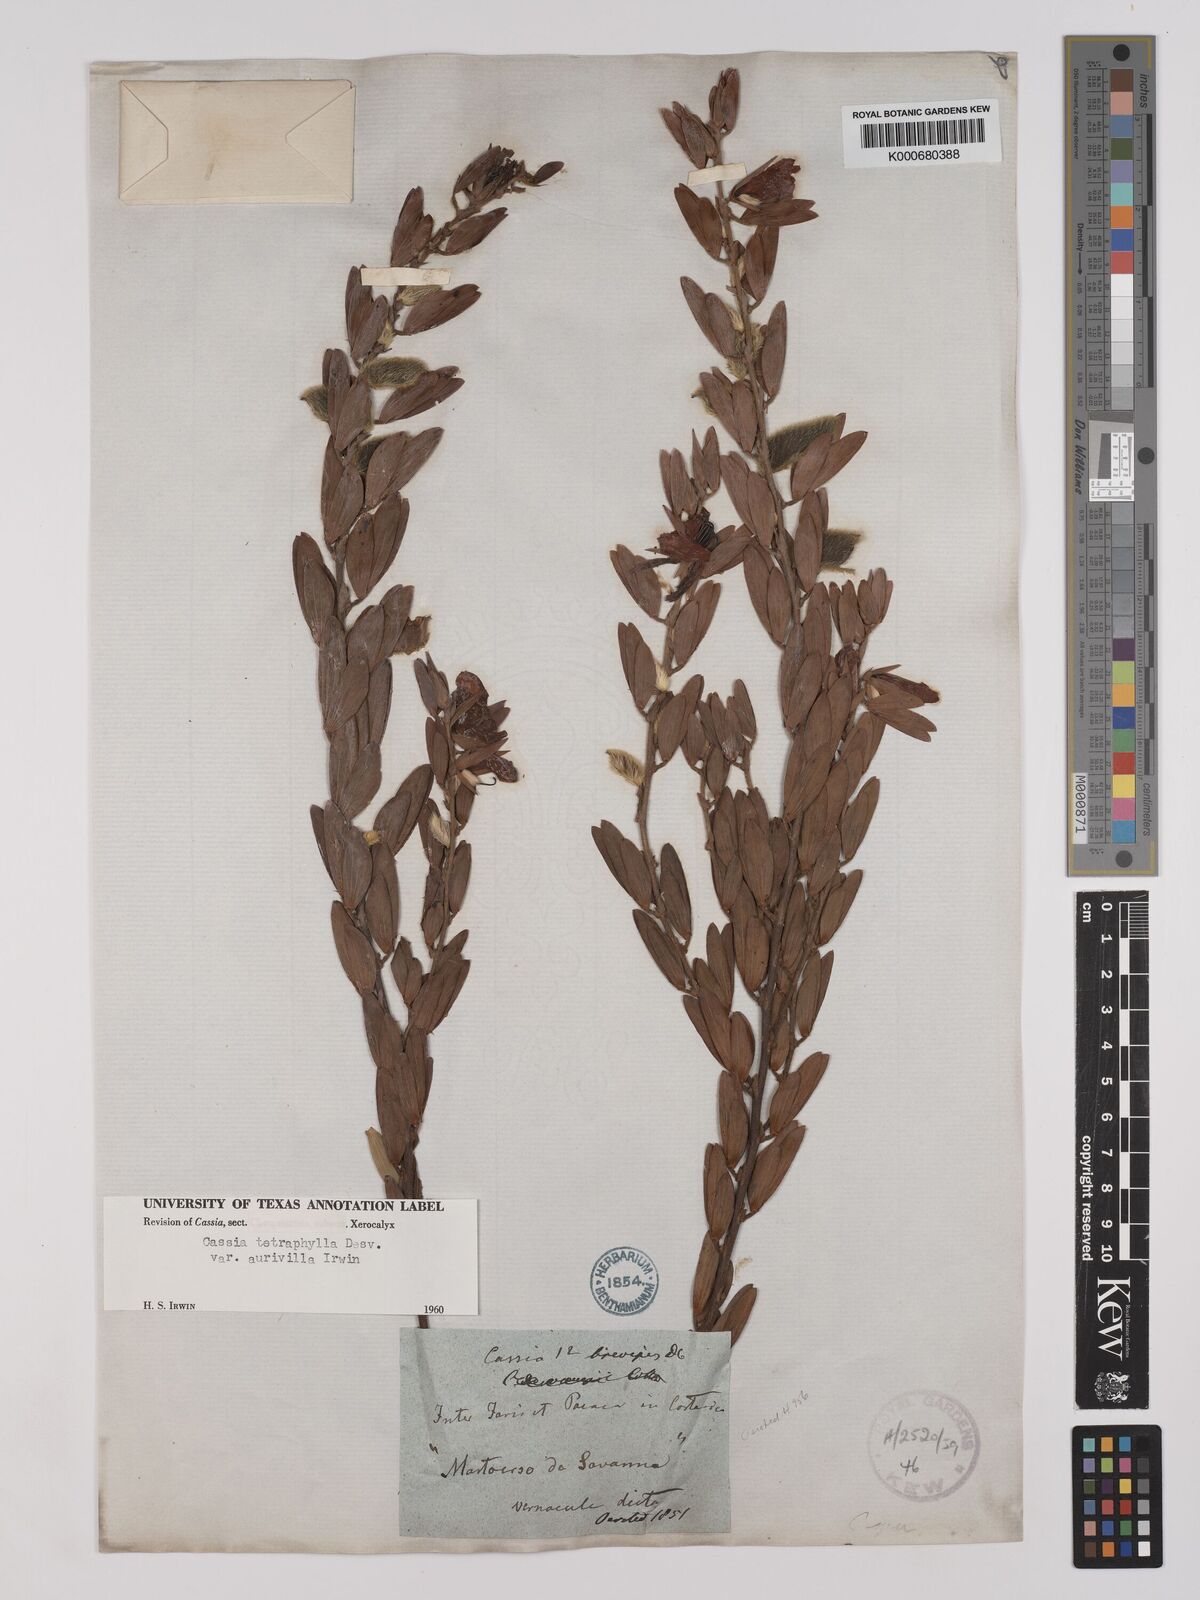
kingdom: Plantae
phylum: Tracheophyta
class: Magnoliopsida
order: Fabales
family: Fabaceae
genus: Chamaecrista
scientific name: Chamaecrista desvauxii
